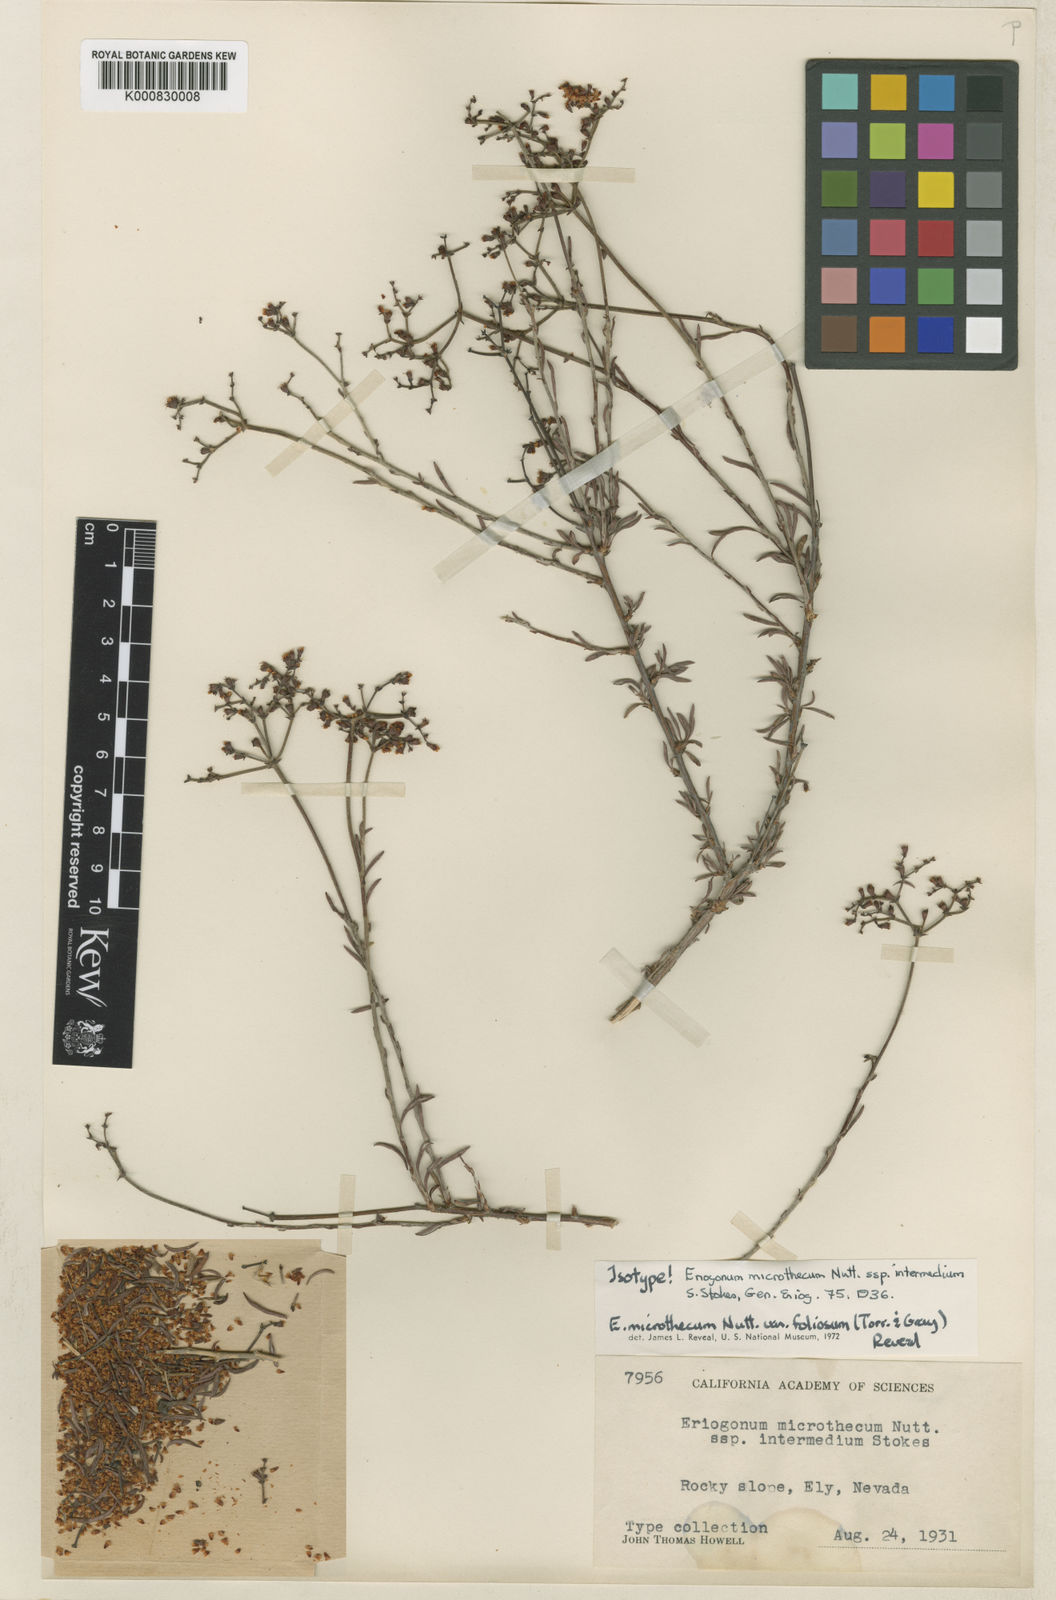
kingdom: Plantae
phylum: Tracheophyta
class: Magnoliopsida
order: Caryophyllales
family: Polygonaceae
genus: Eriogonum
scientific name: Eriogonum microtheca
